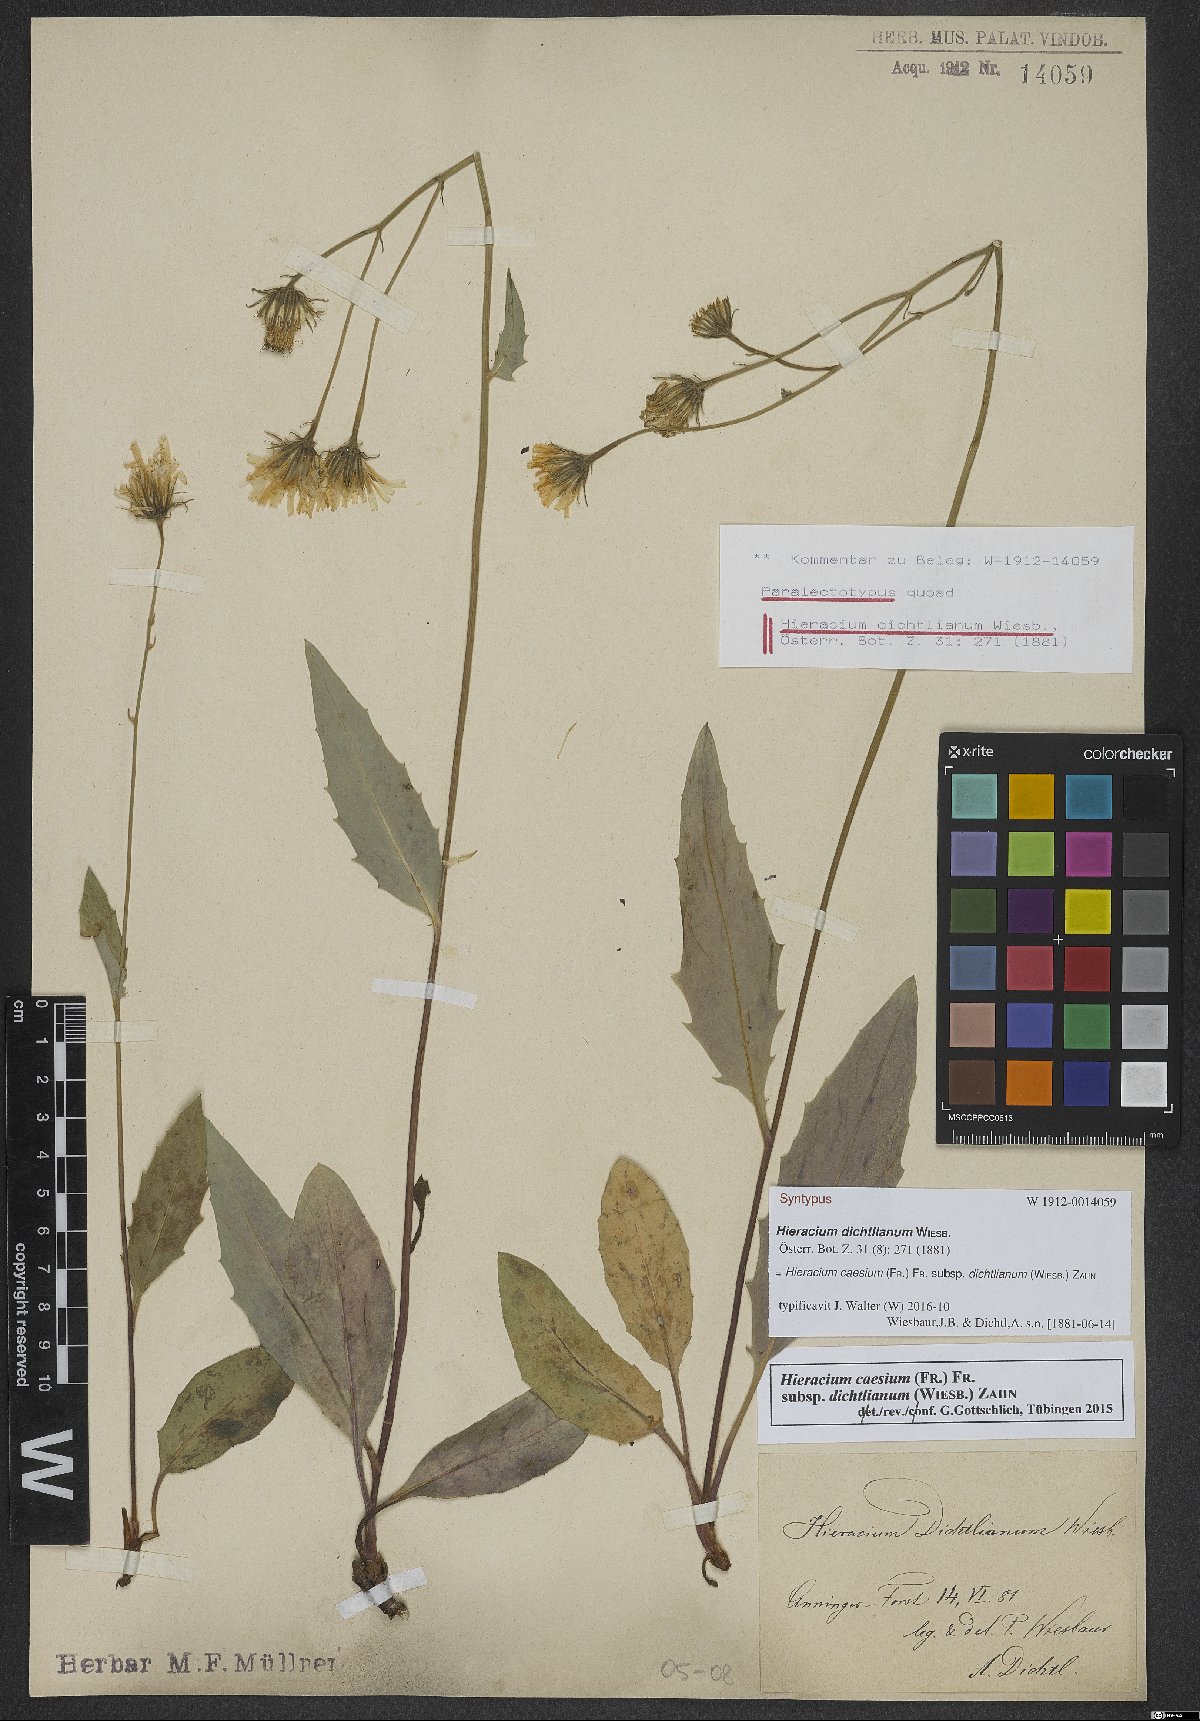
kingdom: Plantae
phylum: Tracheophyta
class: Magnoliopsida
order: Asterales
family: Asteraceae
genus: Hieracium
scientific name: Hieracium caesium
